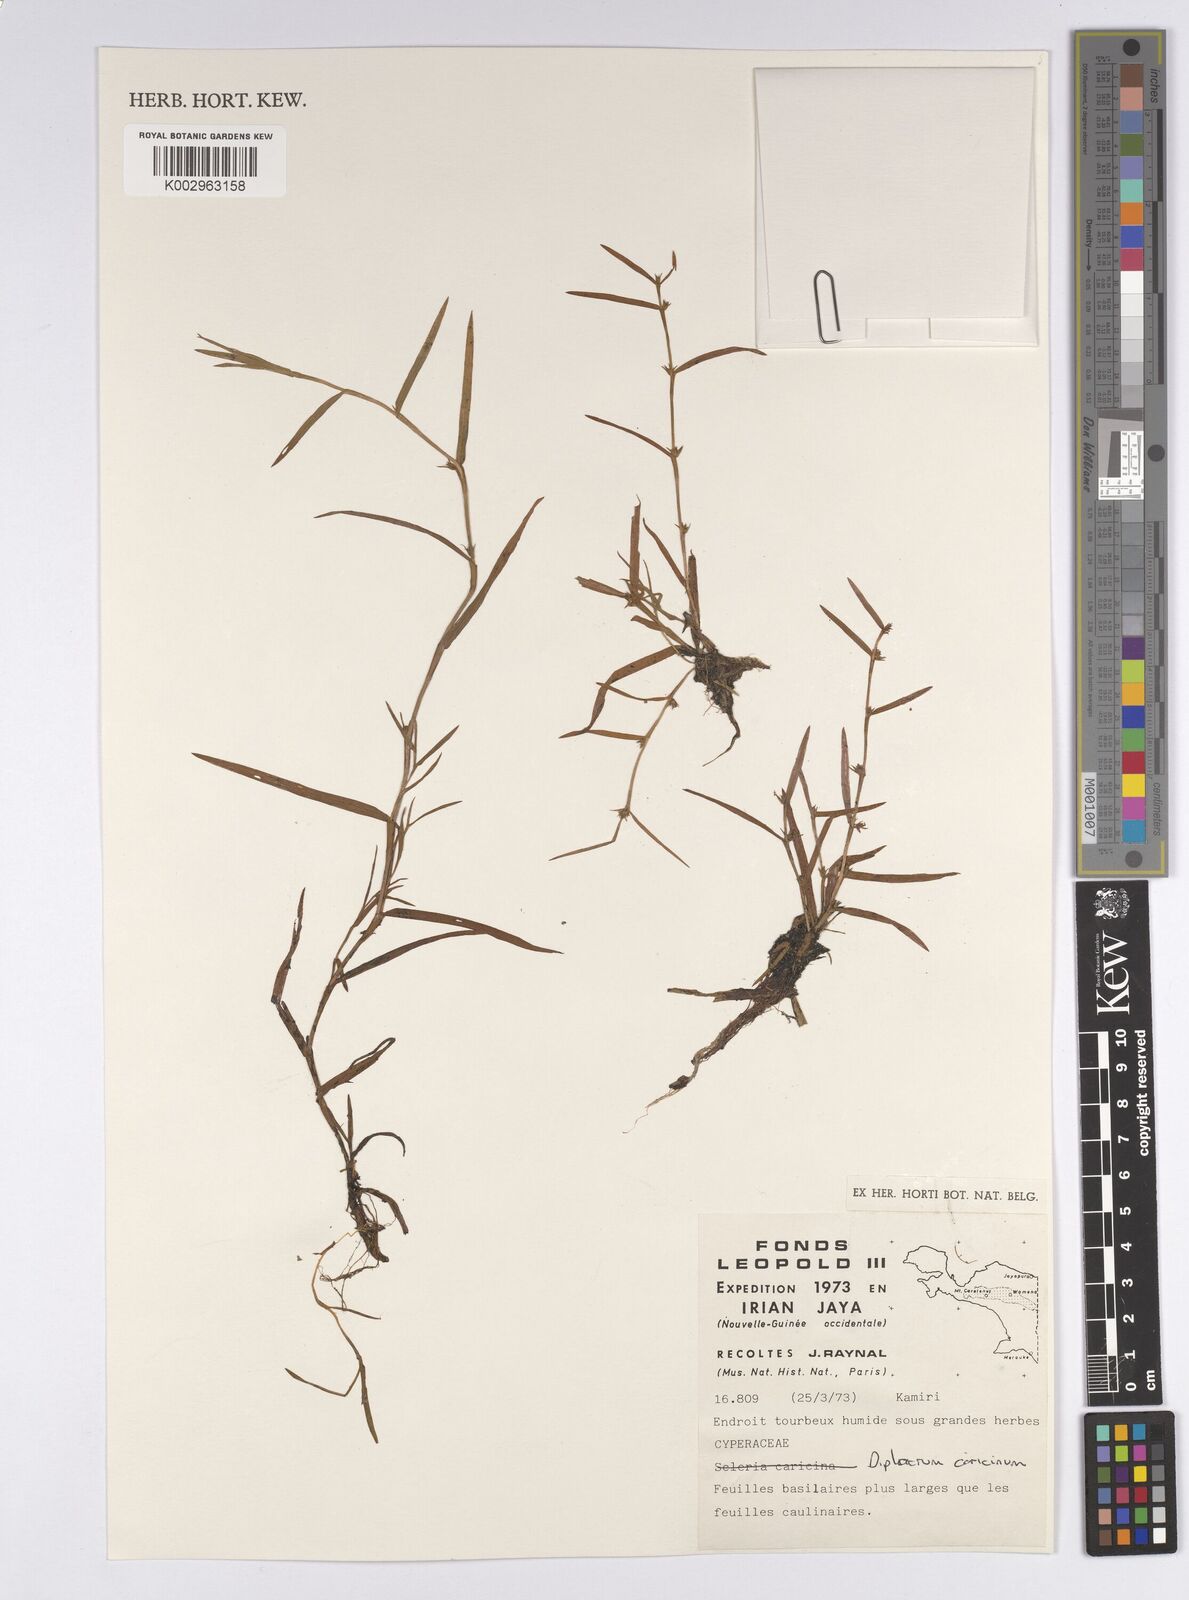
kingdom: Plantae
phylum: Tracheophyta
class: Liliopsida
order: Poales
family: Cyperaceae
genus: Diplacrum
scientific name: Diplacrum caricinum
